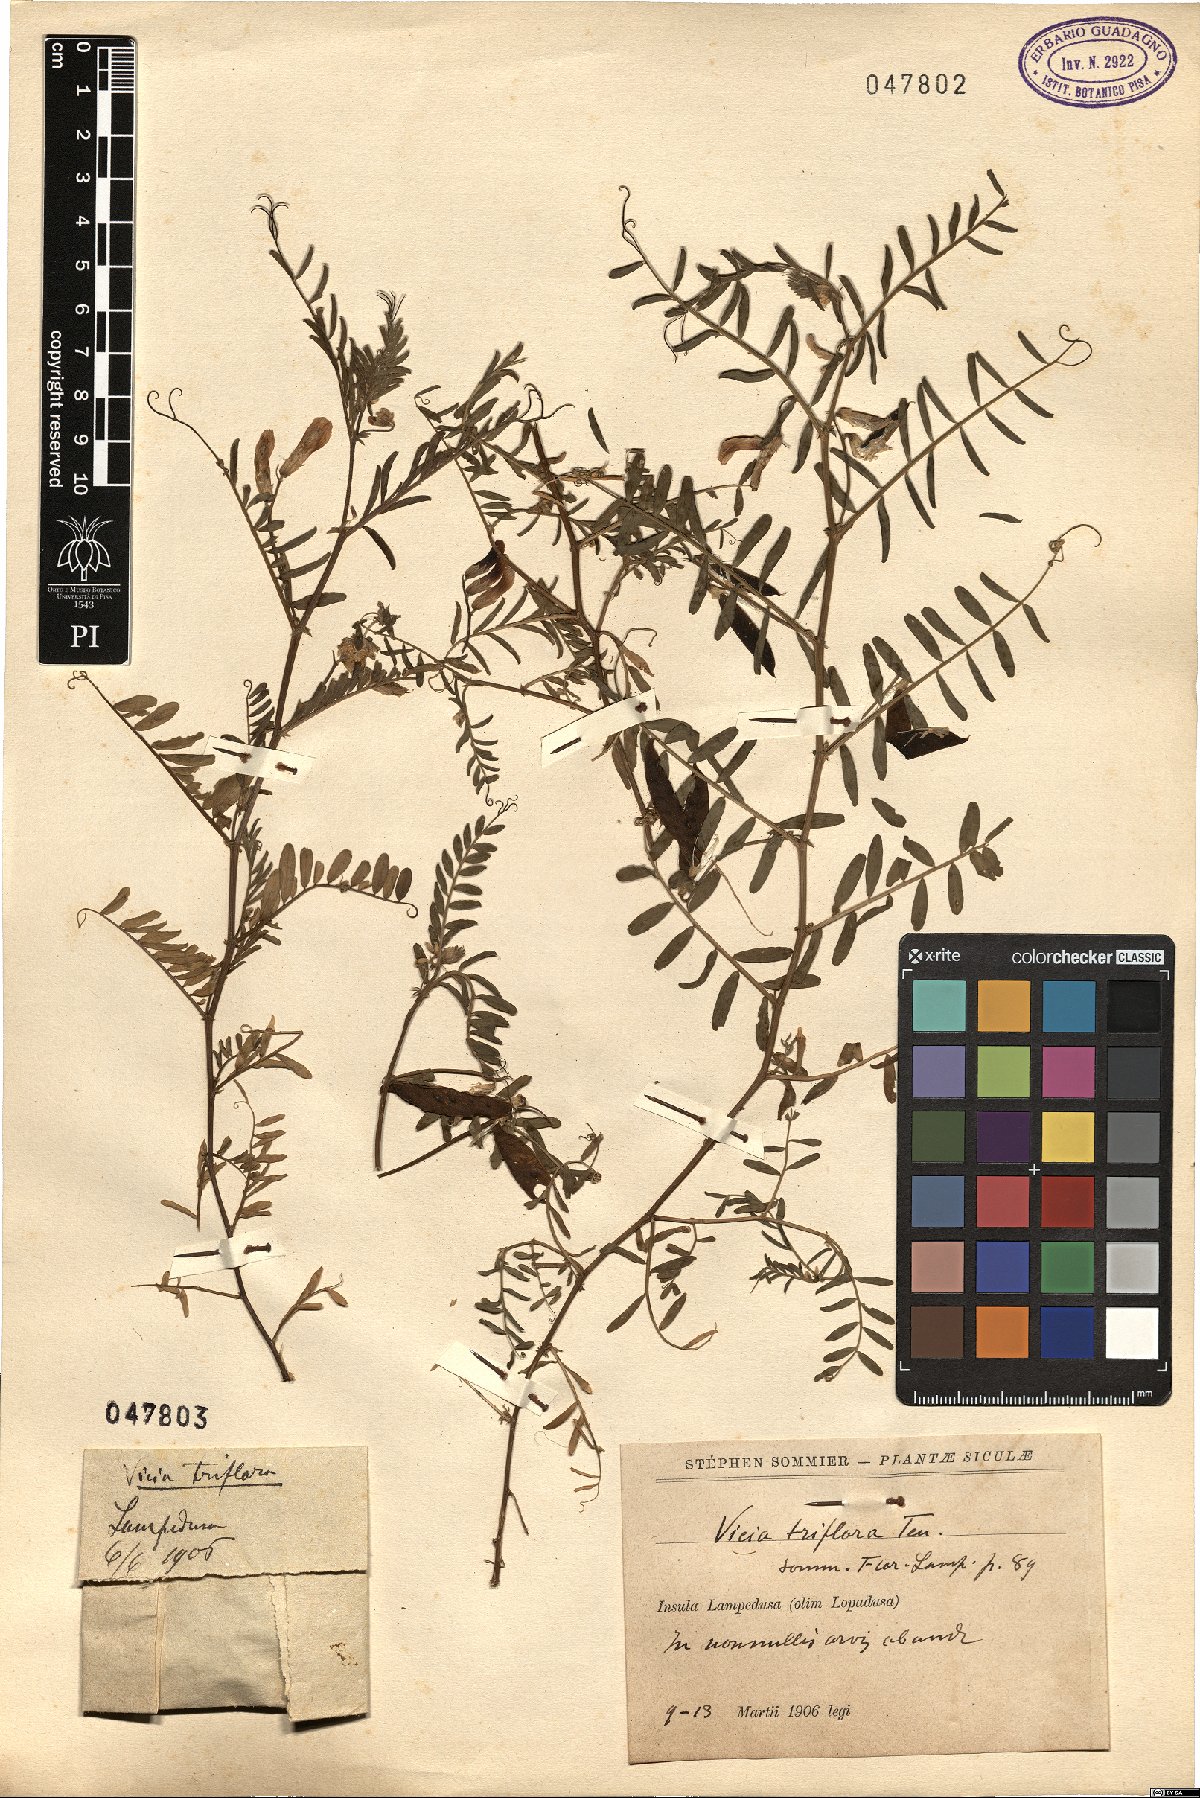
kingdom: Plantae
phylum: Tracheophyta
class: Magnoliopsida
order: Fabales
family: Fabaceae
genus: Vicia
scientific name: Vicia monantha
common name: Barn vetch
